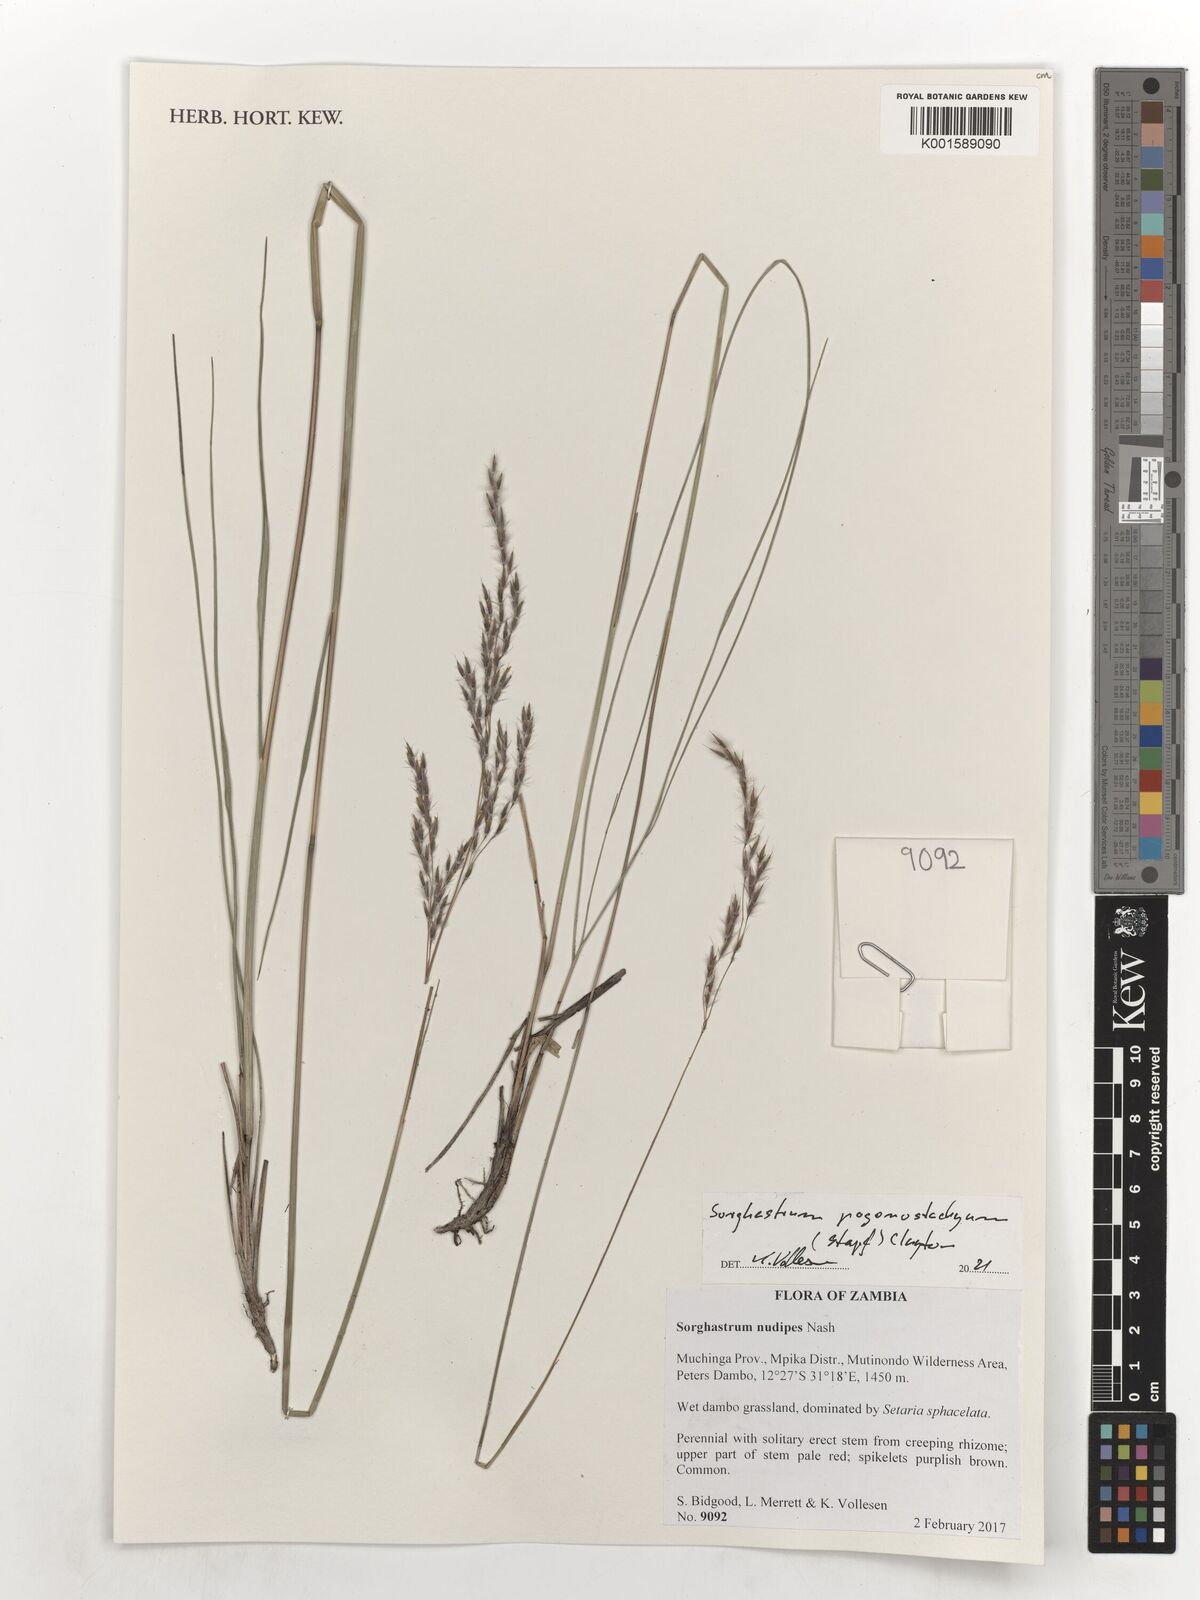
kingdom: Plantae
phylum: Tracheophyta
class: Liliopsida
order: Poales
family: Poaceae
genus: Sorghastrum
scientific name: Sorghastrum pogonostachyum
